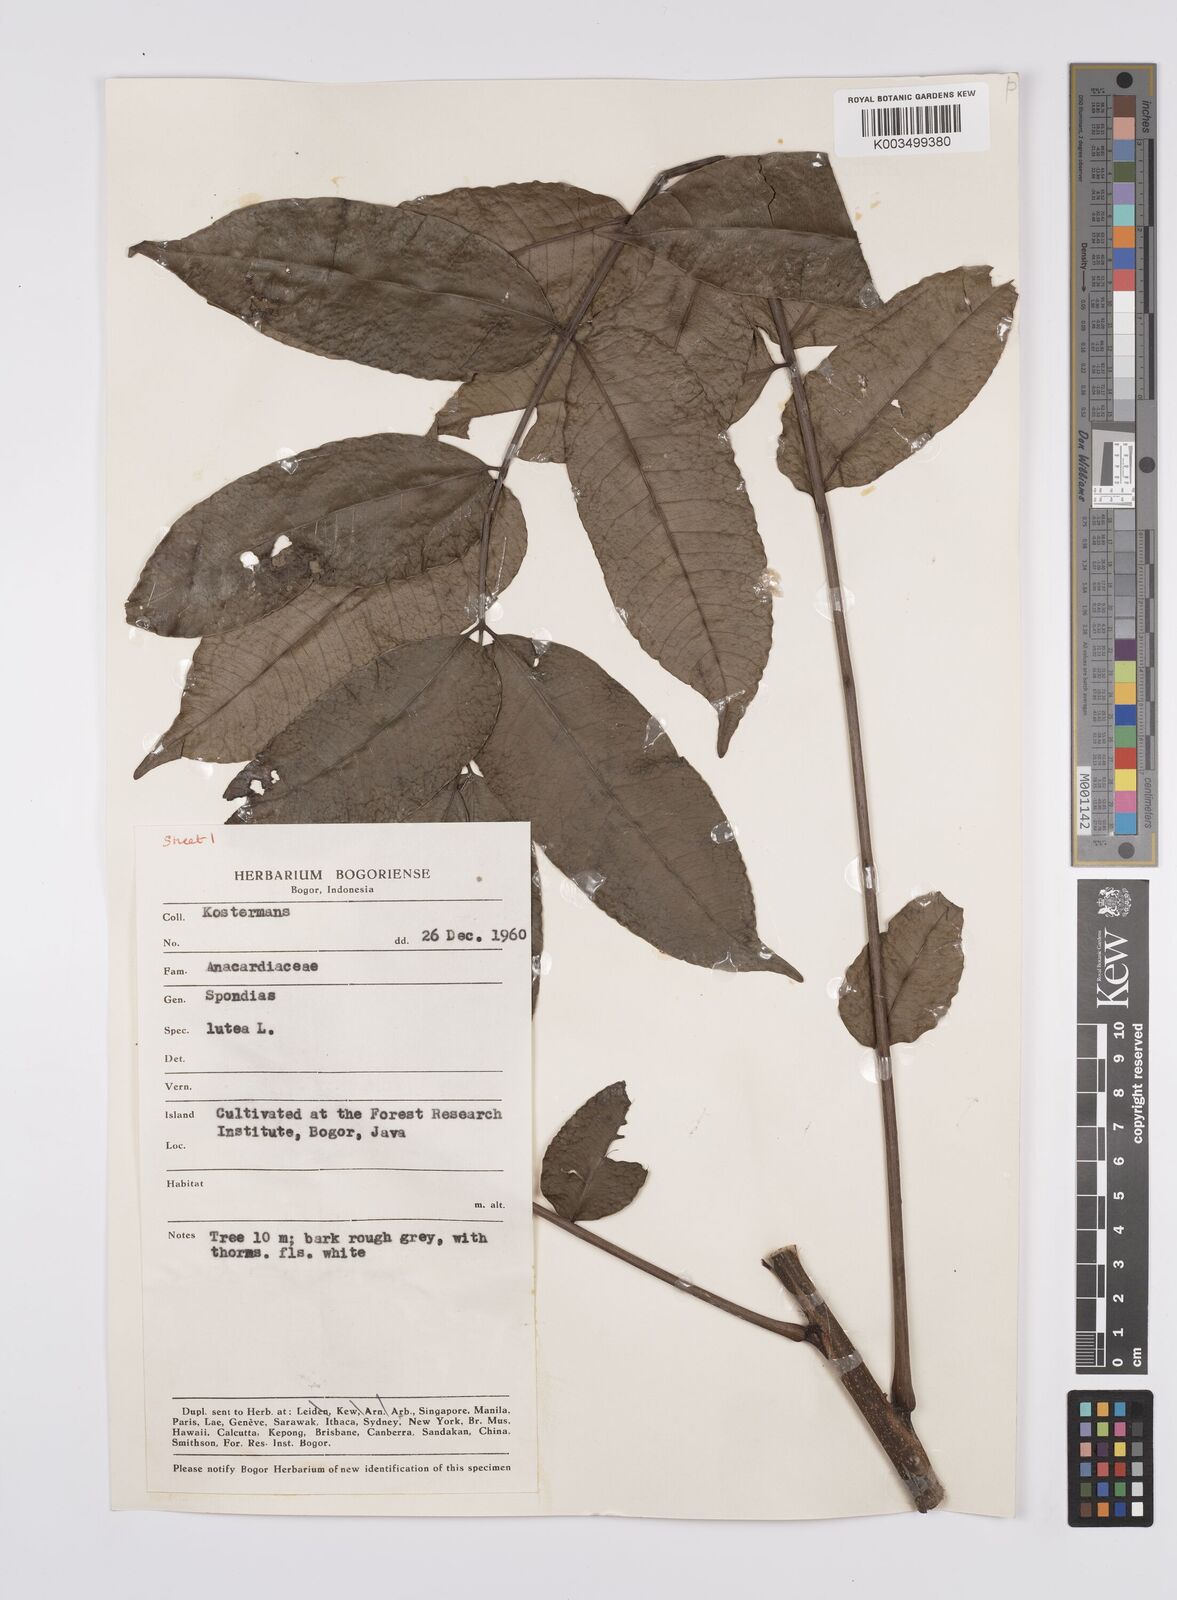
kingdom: Plantae
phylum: Tracheophyta
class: Magnoliopsida
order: Sapindales
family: Anacardiaceae
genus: Spondias
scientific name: Spondias mombin
